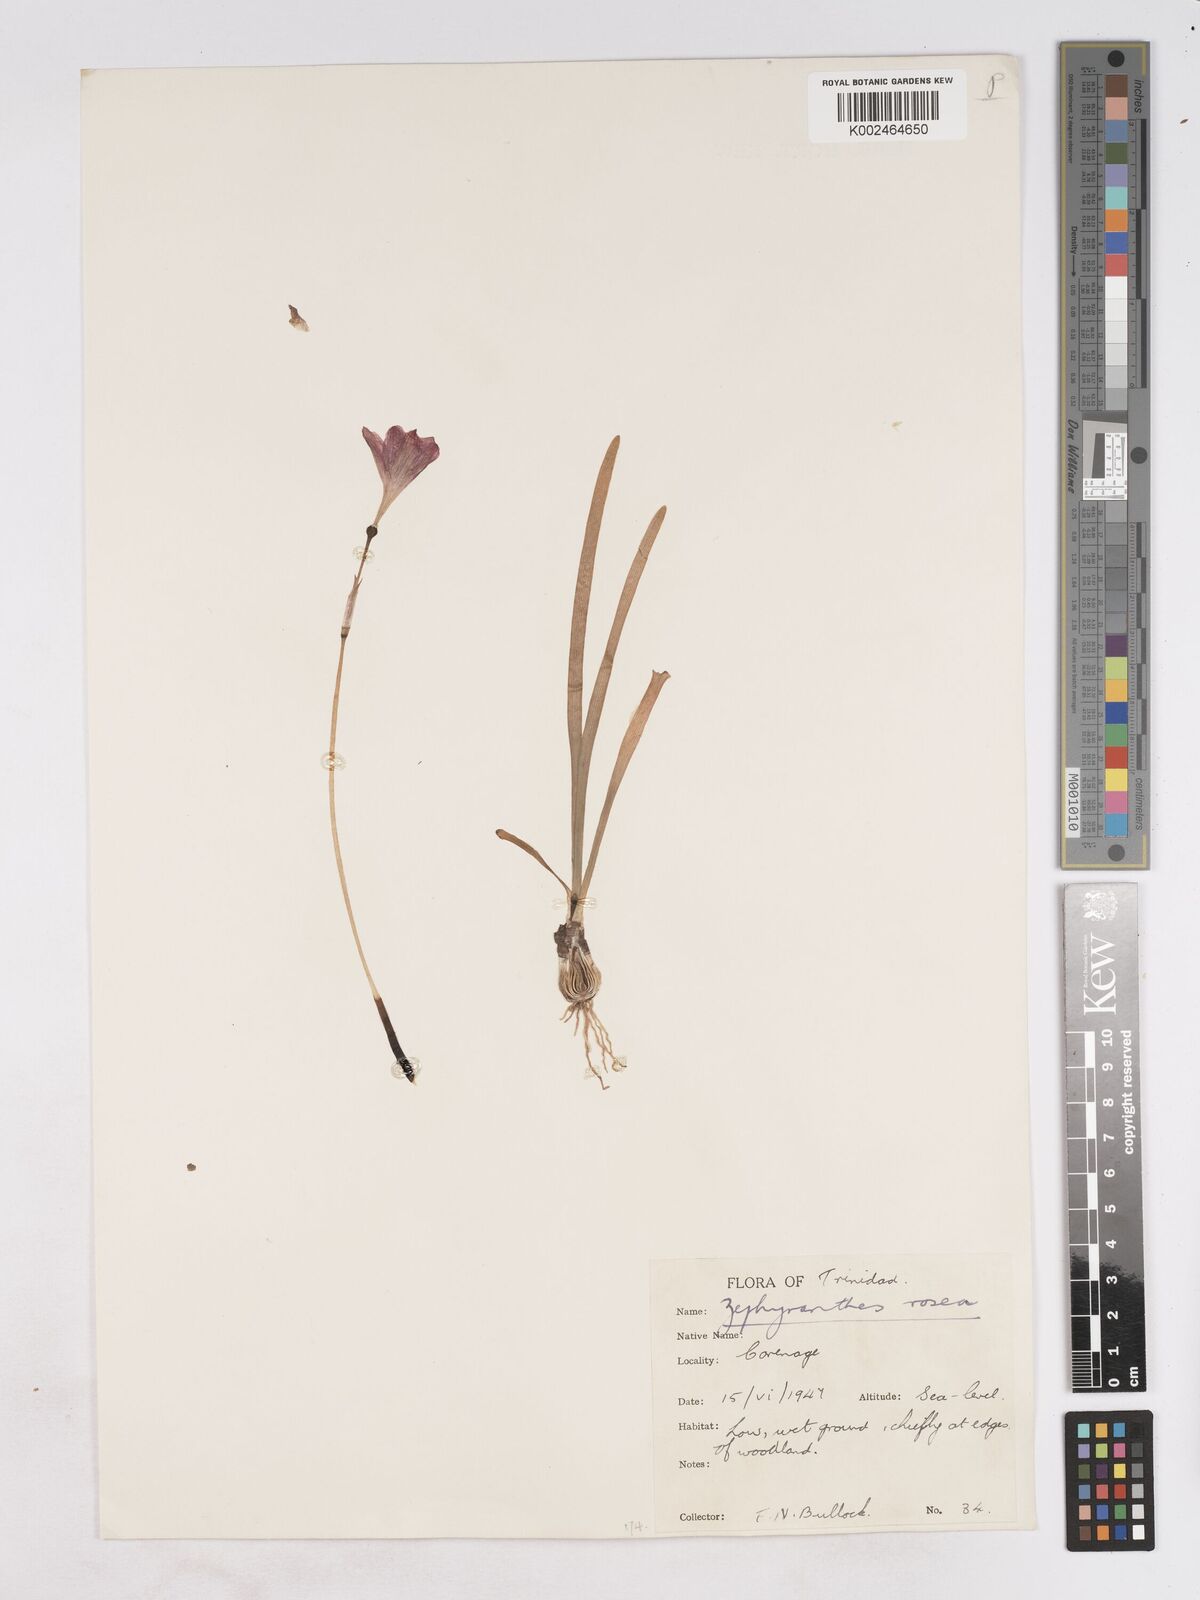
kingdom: Plantae
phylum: Tracheophyta
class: Liliopsida
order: Asparagales
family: Amaryllidaceae
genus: Zephyranthes
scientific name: Zephyranthes rosea
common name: Cuban zephyrlily
